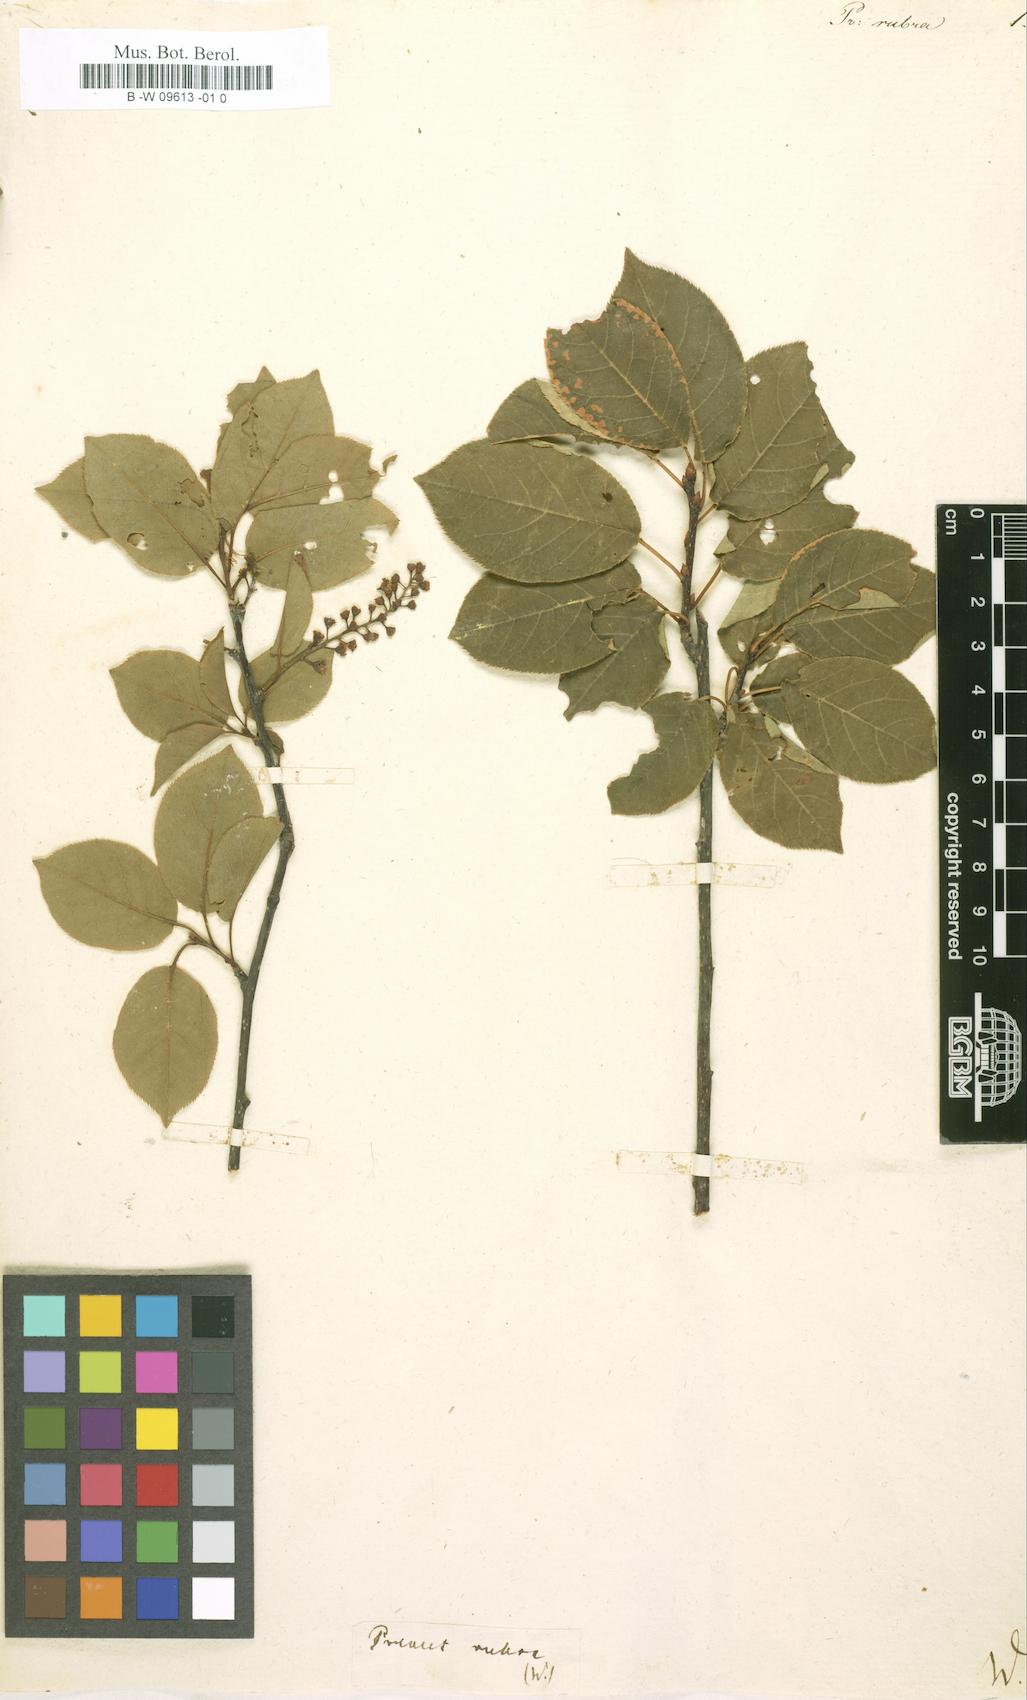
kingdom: Plantae
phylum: Tracheophyta
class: Magnoliopsida
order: Rosales
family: Rosaceae
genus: Prunus
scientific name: Prunus avium
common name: Sweet cherry
